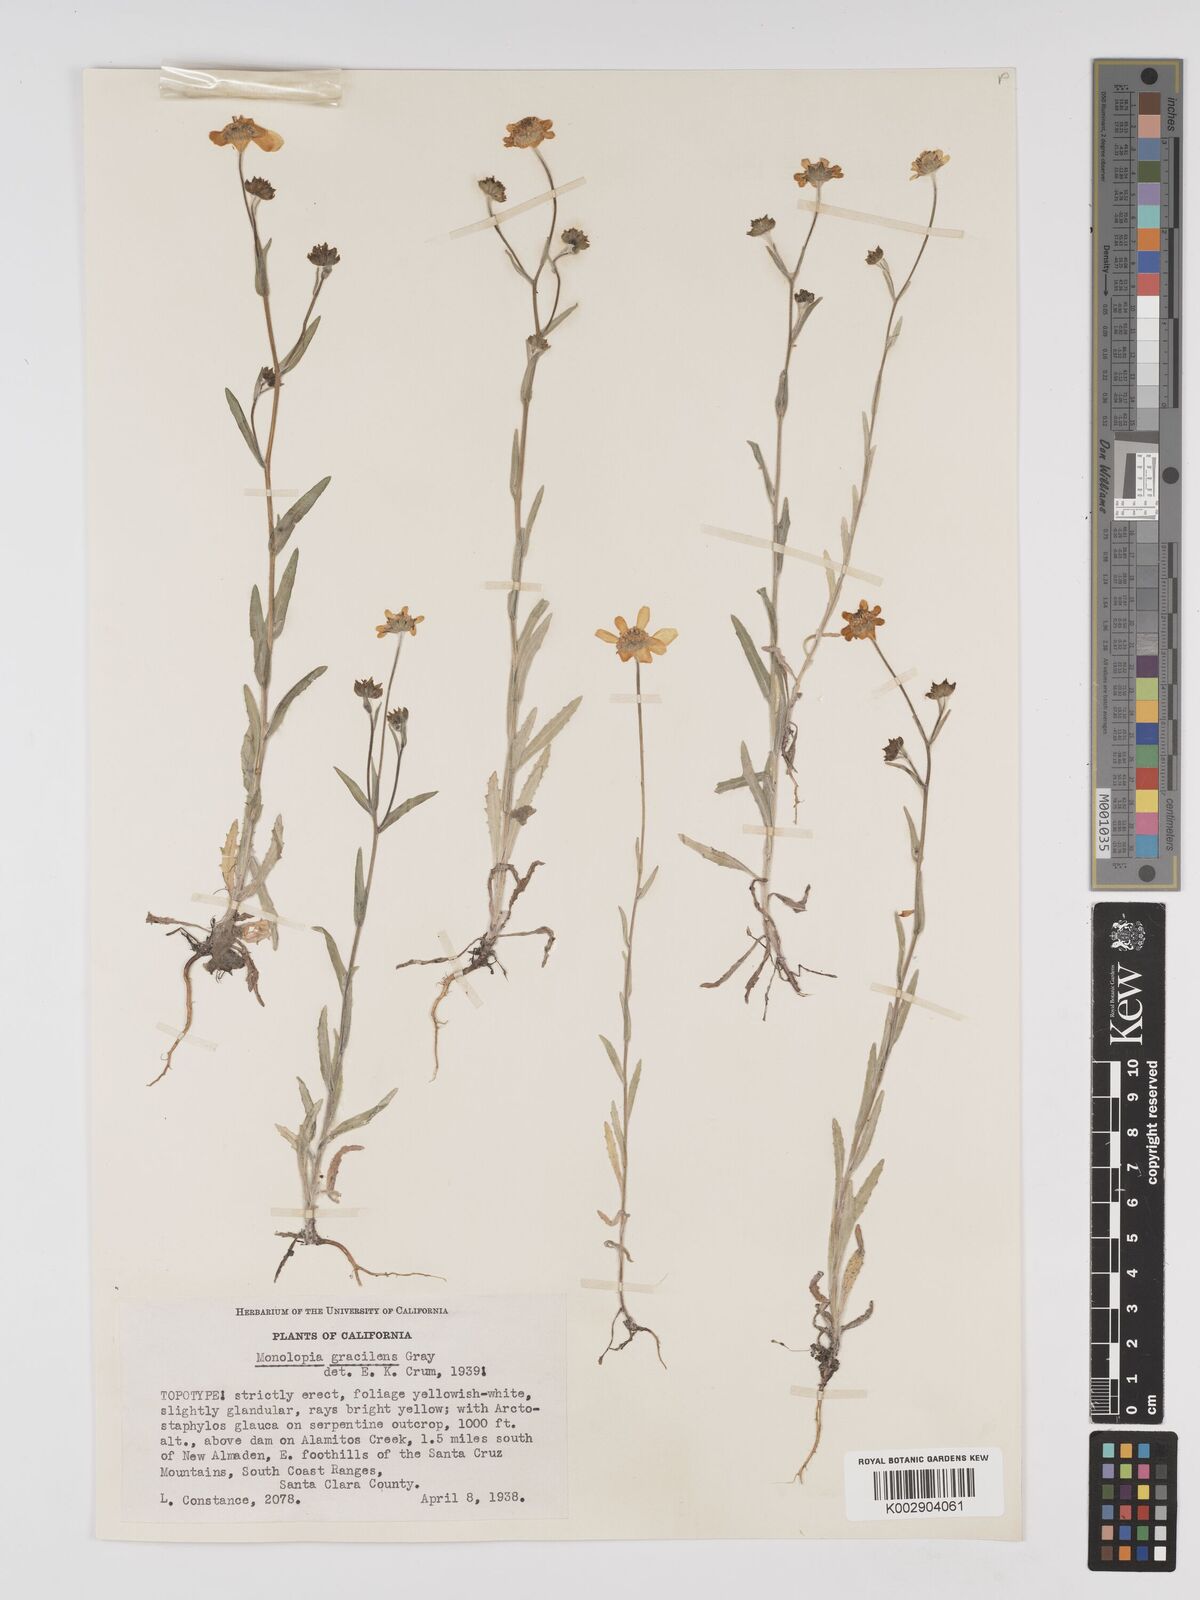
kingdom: Plantae
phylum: Tracheophyta
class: Magnoliopsida
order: Asterales
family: Asteraceae
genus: Monolopia
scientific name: Monolopia gracilens
